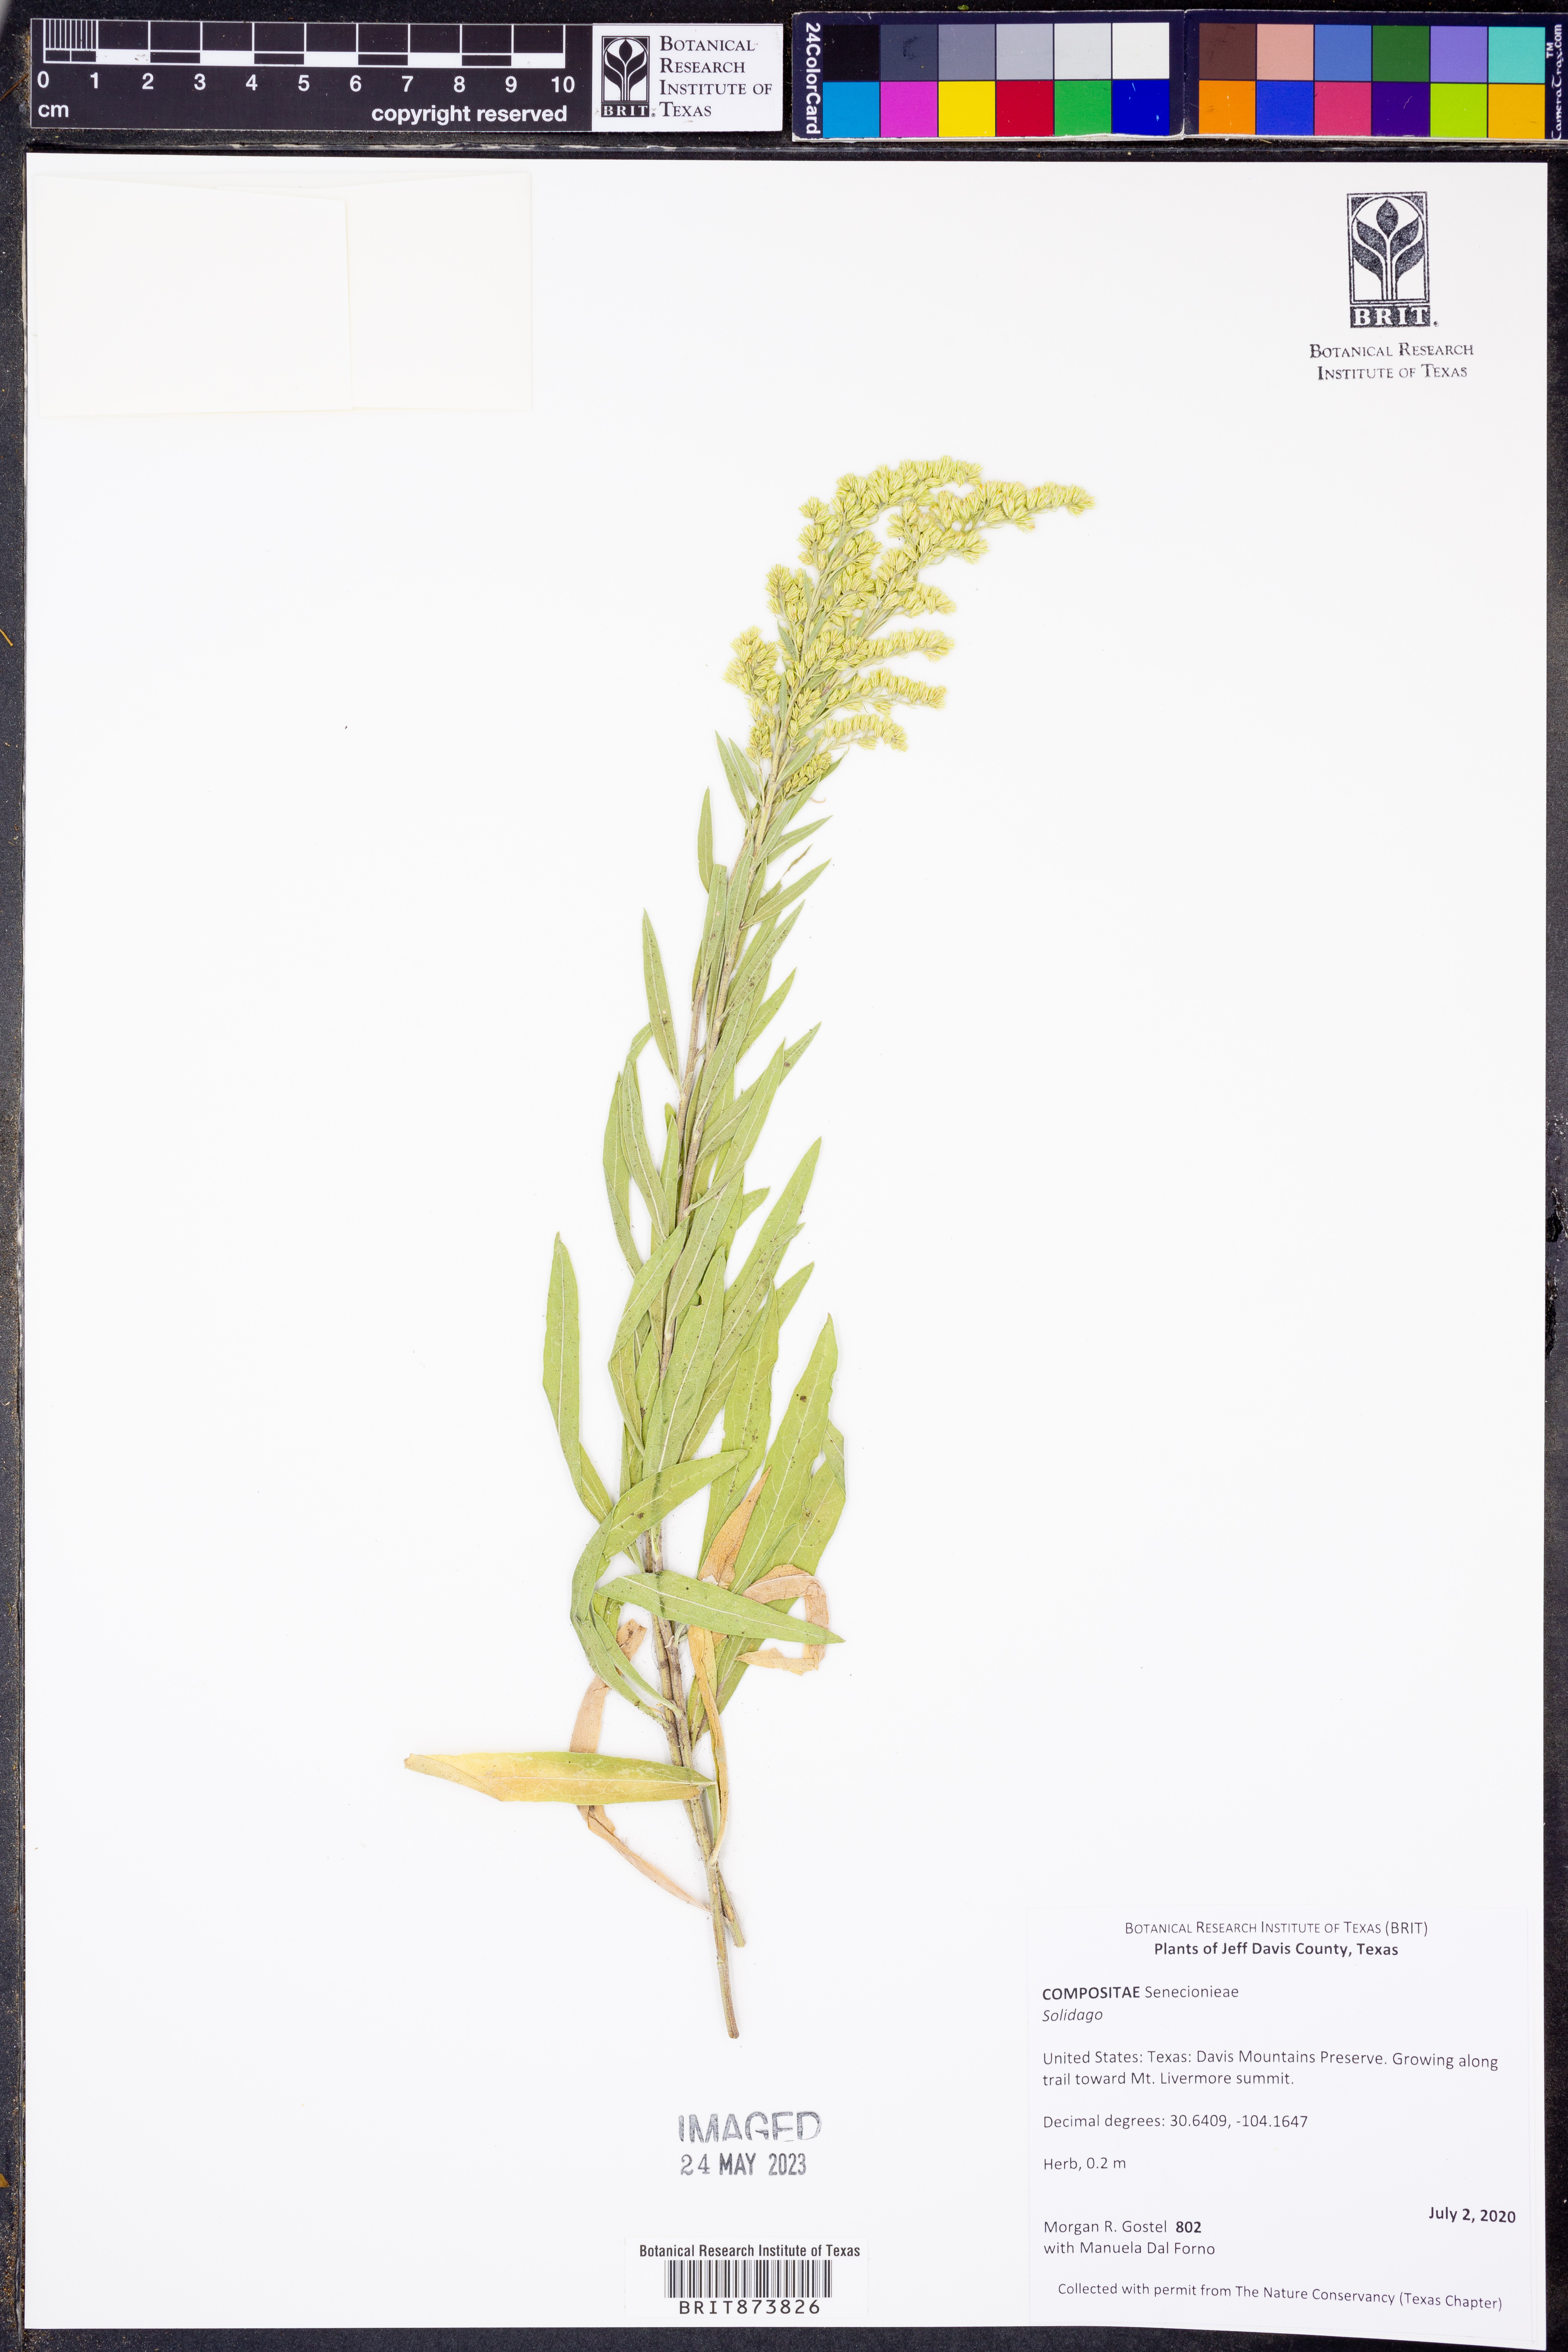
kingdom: Plantae
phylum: Tracheophyta
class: Magnoliopsida
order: Asterales
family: Asteraceae
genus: Solidago
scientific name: Solidago
